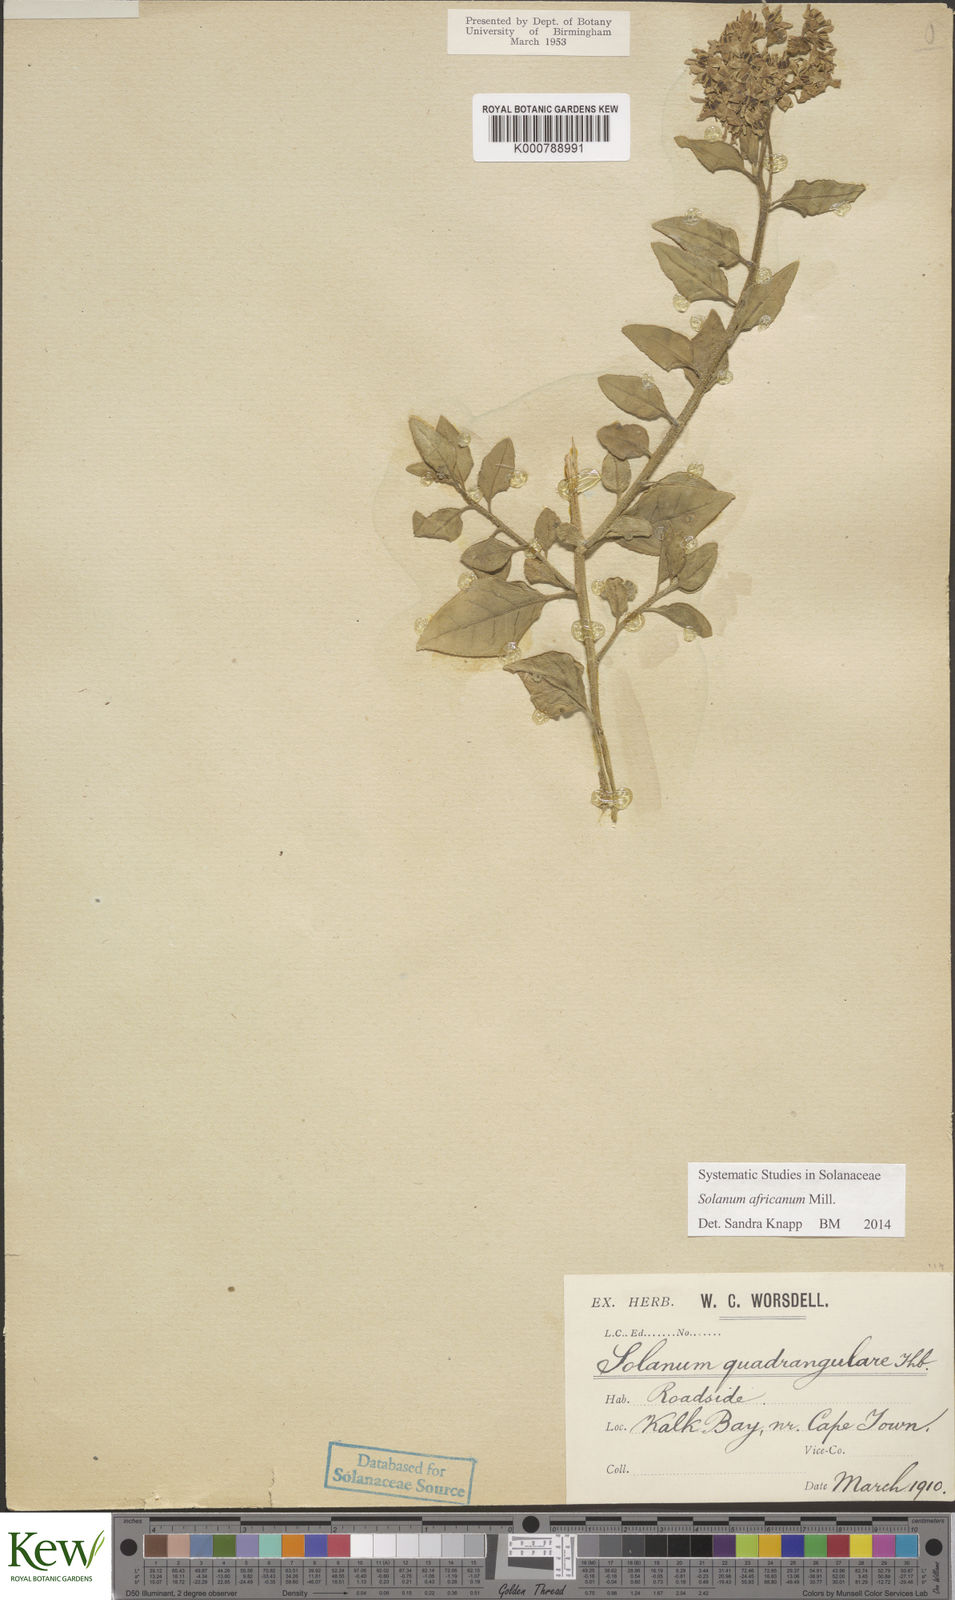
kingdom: Plantae
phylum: Tracheophyta
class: Magnoliopsida
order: Solanales
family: Solanaceae
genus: Solanum
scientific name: Solanum africanum
